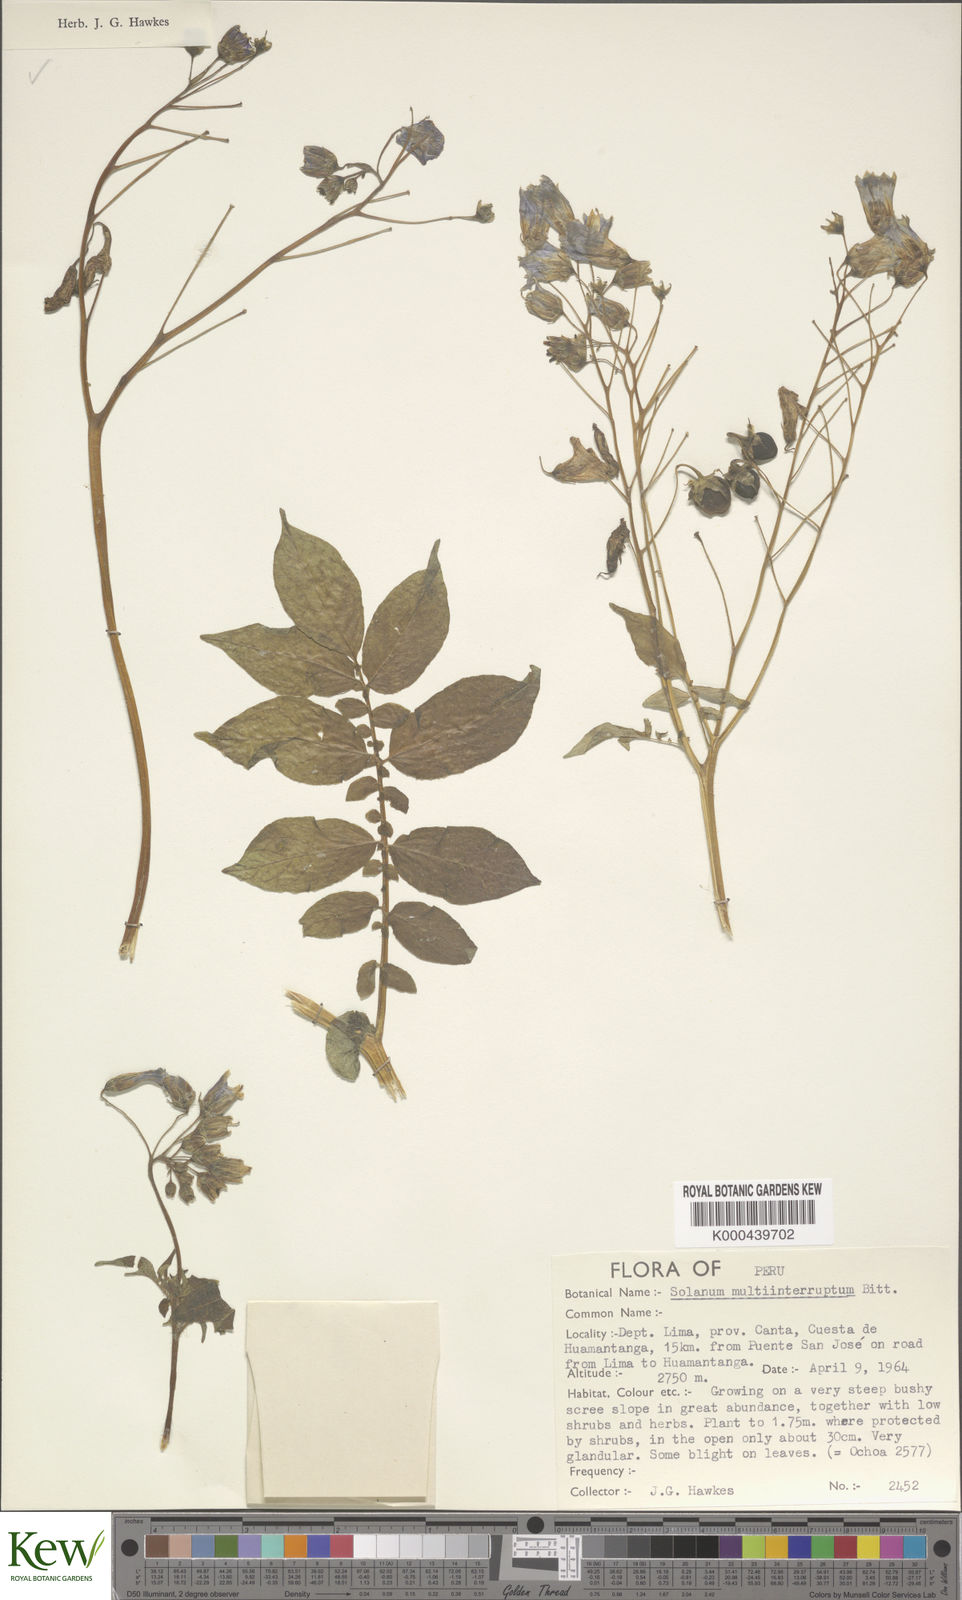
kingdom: Plantae
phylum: Tracheophyta
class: Magnoliopsida
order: Solanales
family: Solanaceae
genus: Solanum
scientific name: Solanum multiinterruptum
